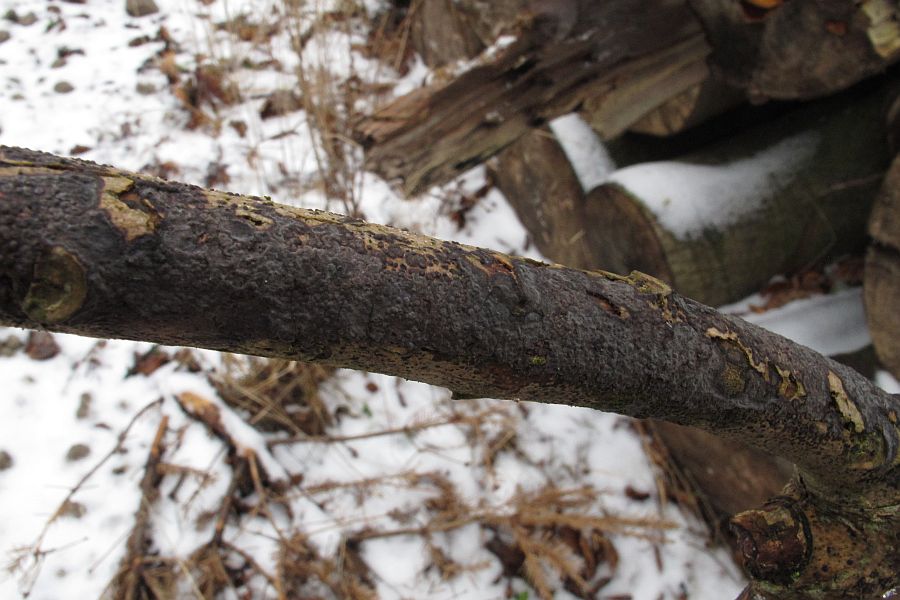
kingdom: Fungi
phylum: Basidiomycota
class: Agaricomycetes
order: Russulales
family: Peniophoraceae
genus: Peniophora
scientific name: Peniophora limitata
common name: mørkrandet voksskind
